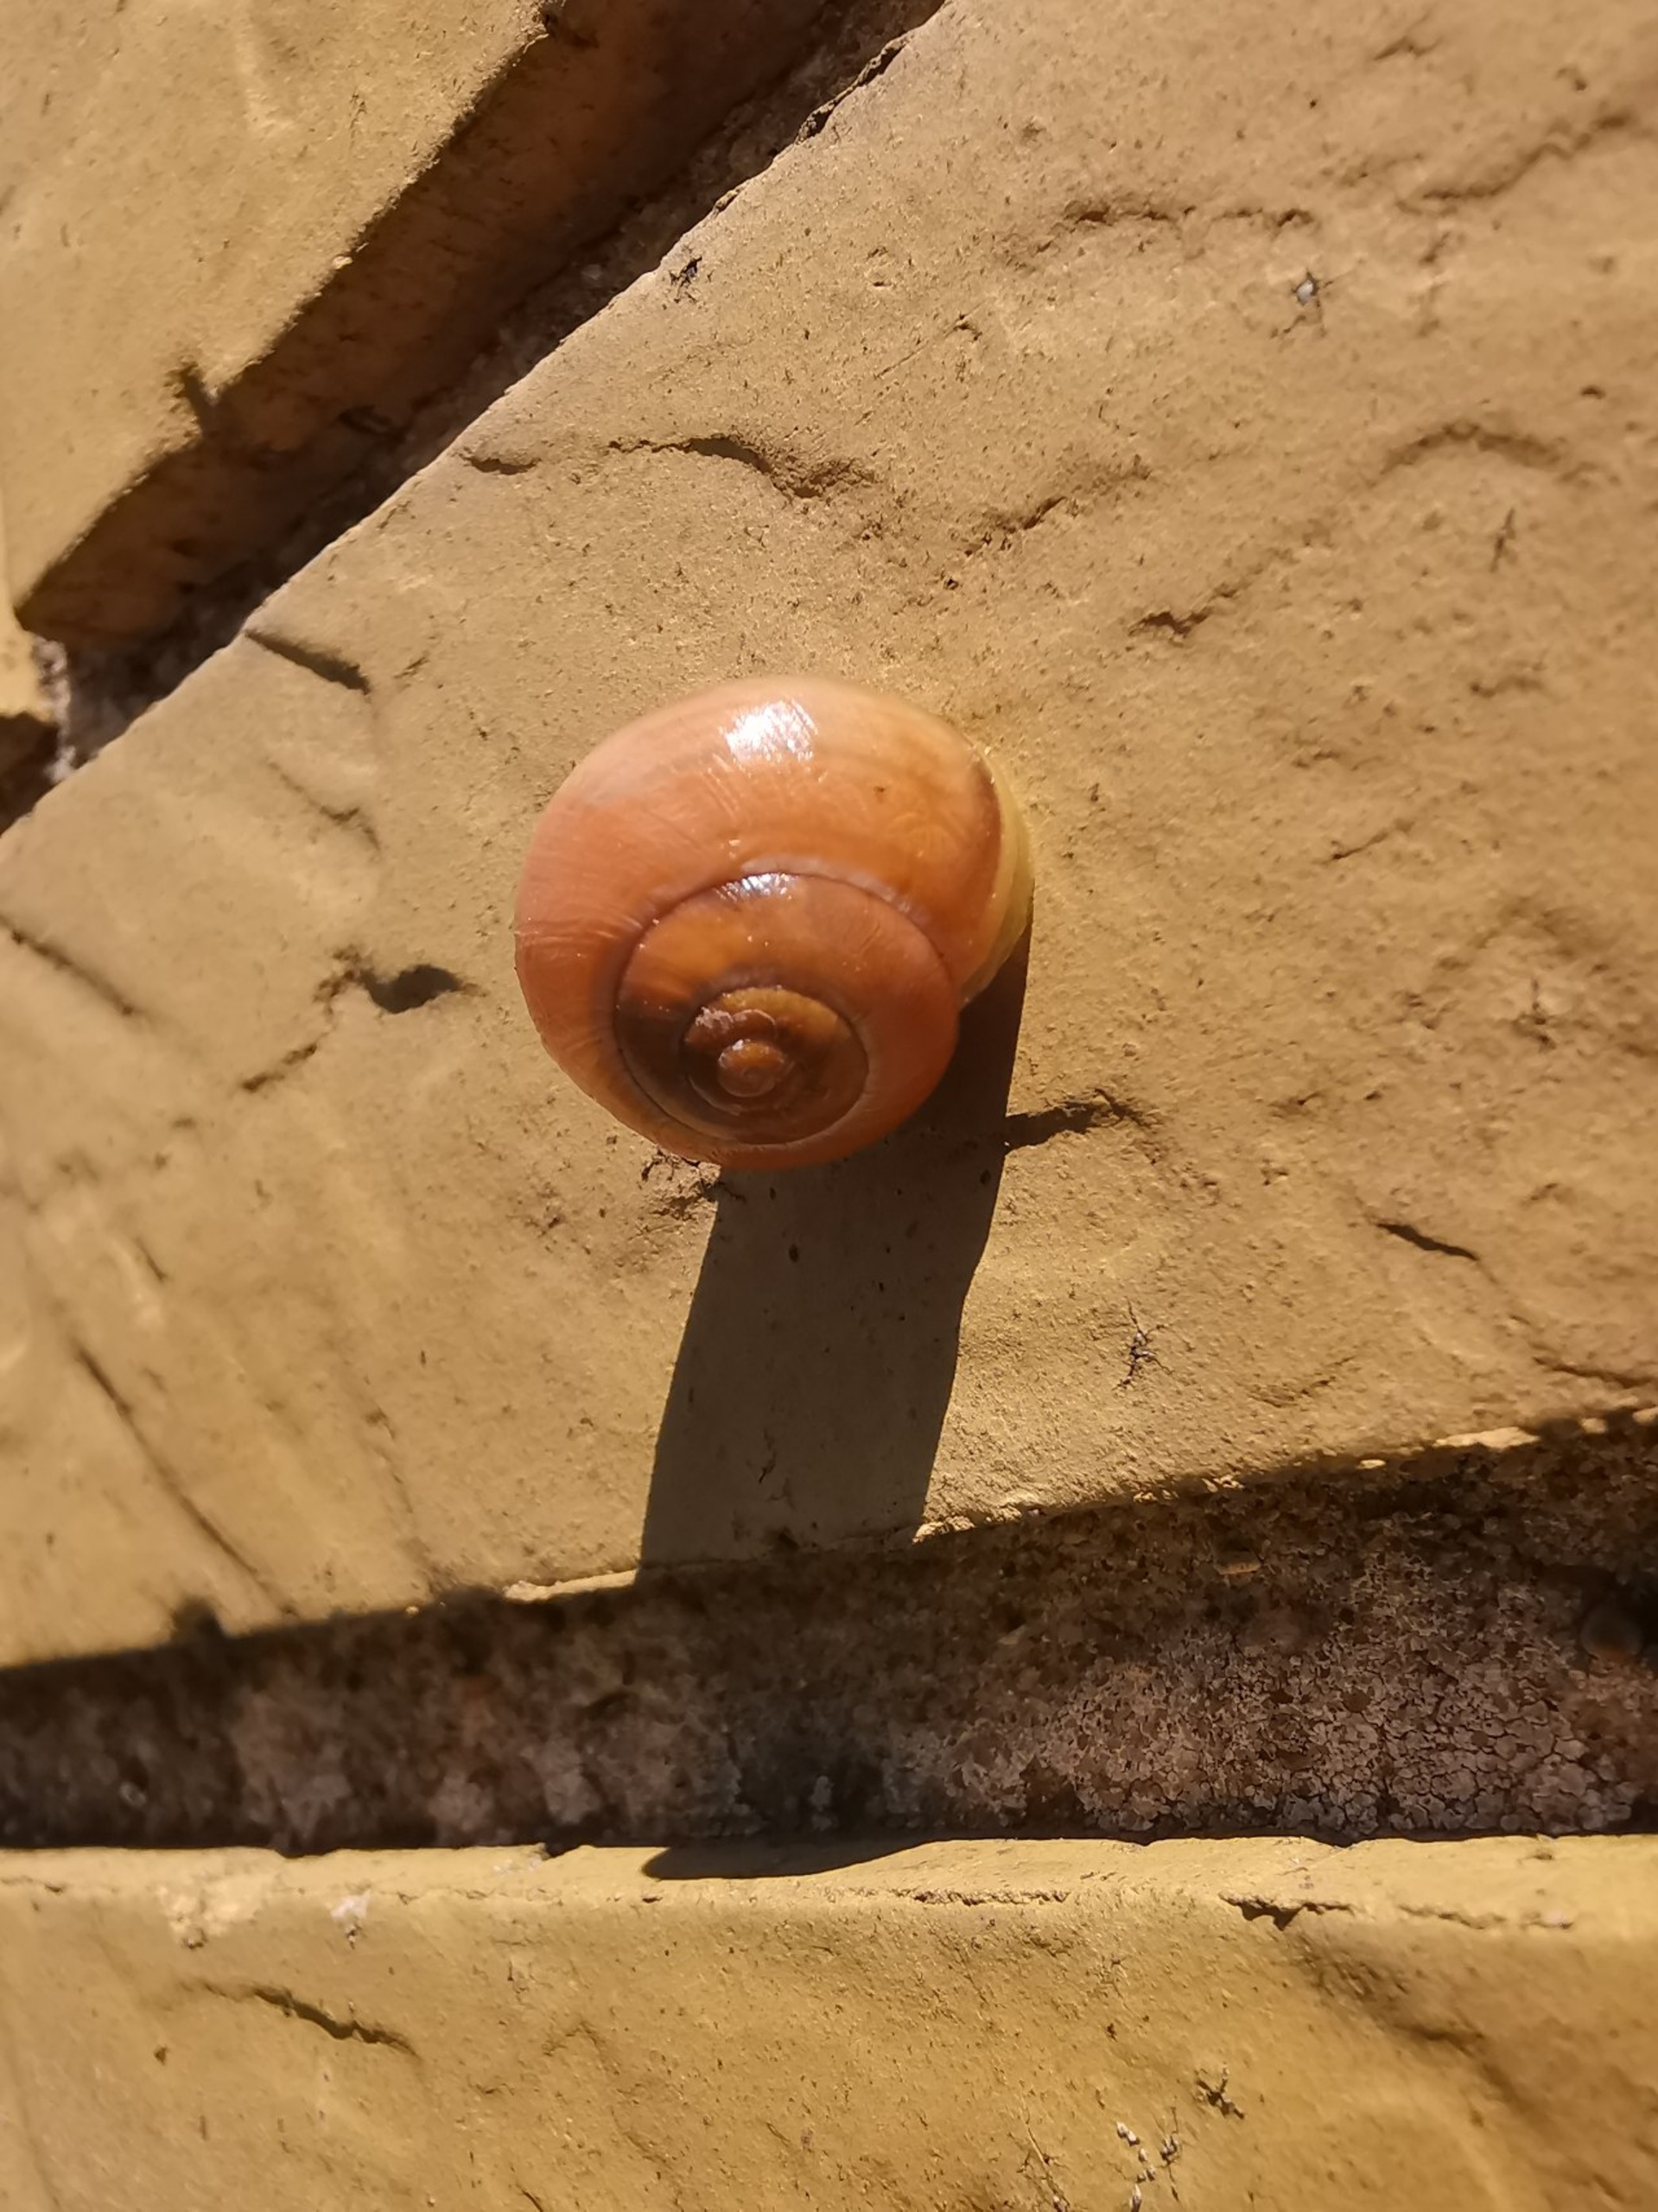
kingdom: Animalia
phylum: Mollusca
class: Gastropoda
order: Stylommatophora
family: Helicidae
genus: Cepaea
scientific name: Cepaea hortensis
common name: Havesnegl
